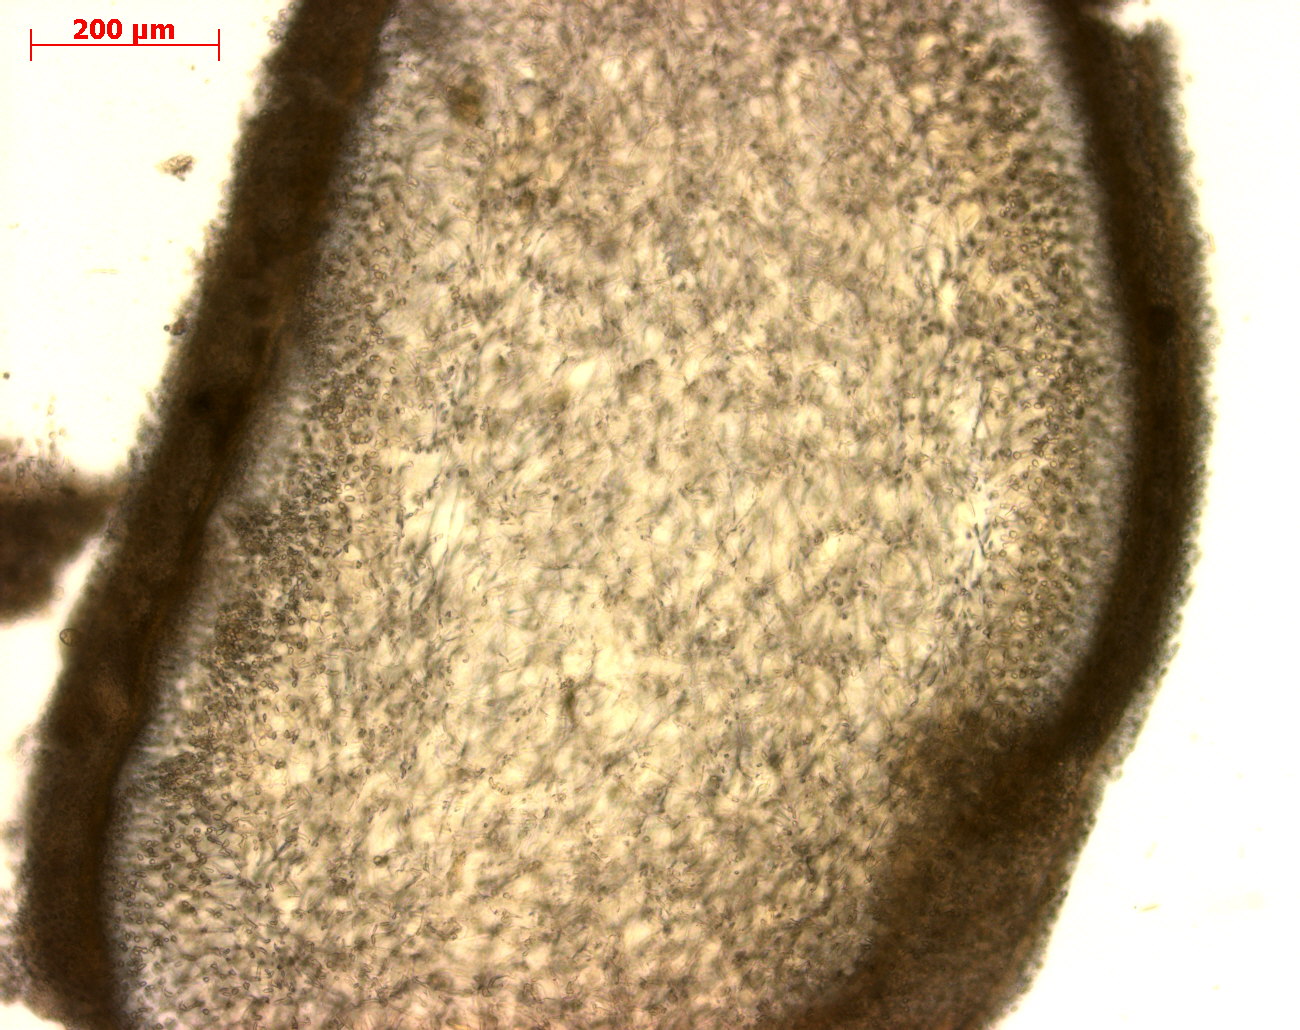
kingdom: Plantae
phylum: Rhodophyta
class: Florideophyceae
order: Gigartinales
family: Gigartinaceae
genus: Gigartina
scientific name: Gigartina
